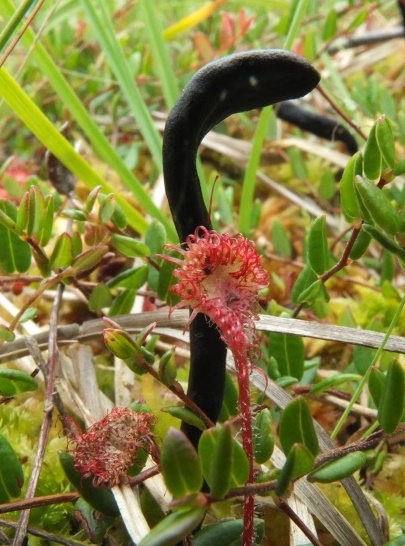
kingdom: Fungi
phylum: Ascomycota
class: Geoglossomycetes
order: Geoglossales
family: Geoglossaceae
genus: Geoglossum
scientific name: Geoglossum glabrum
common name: tørvemos-jordtunge
